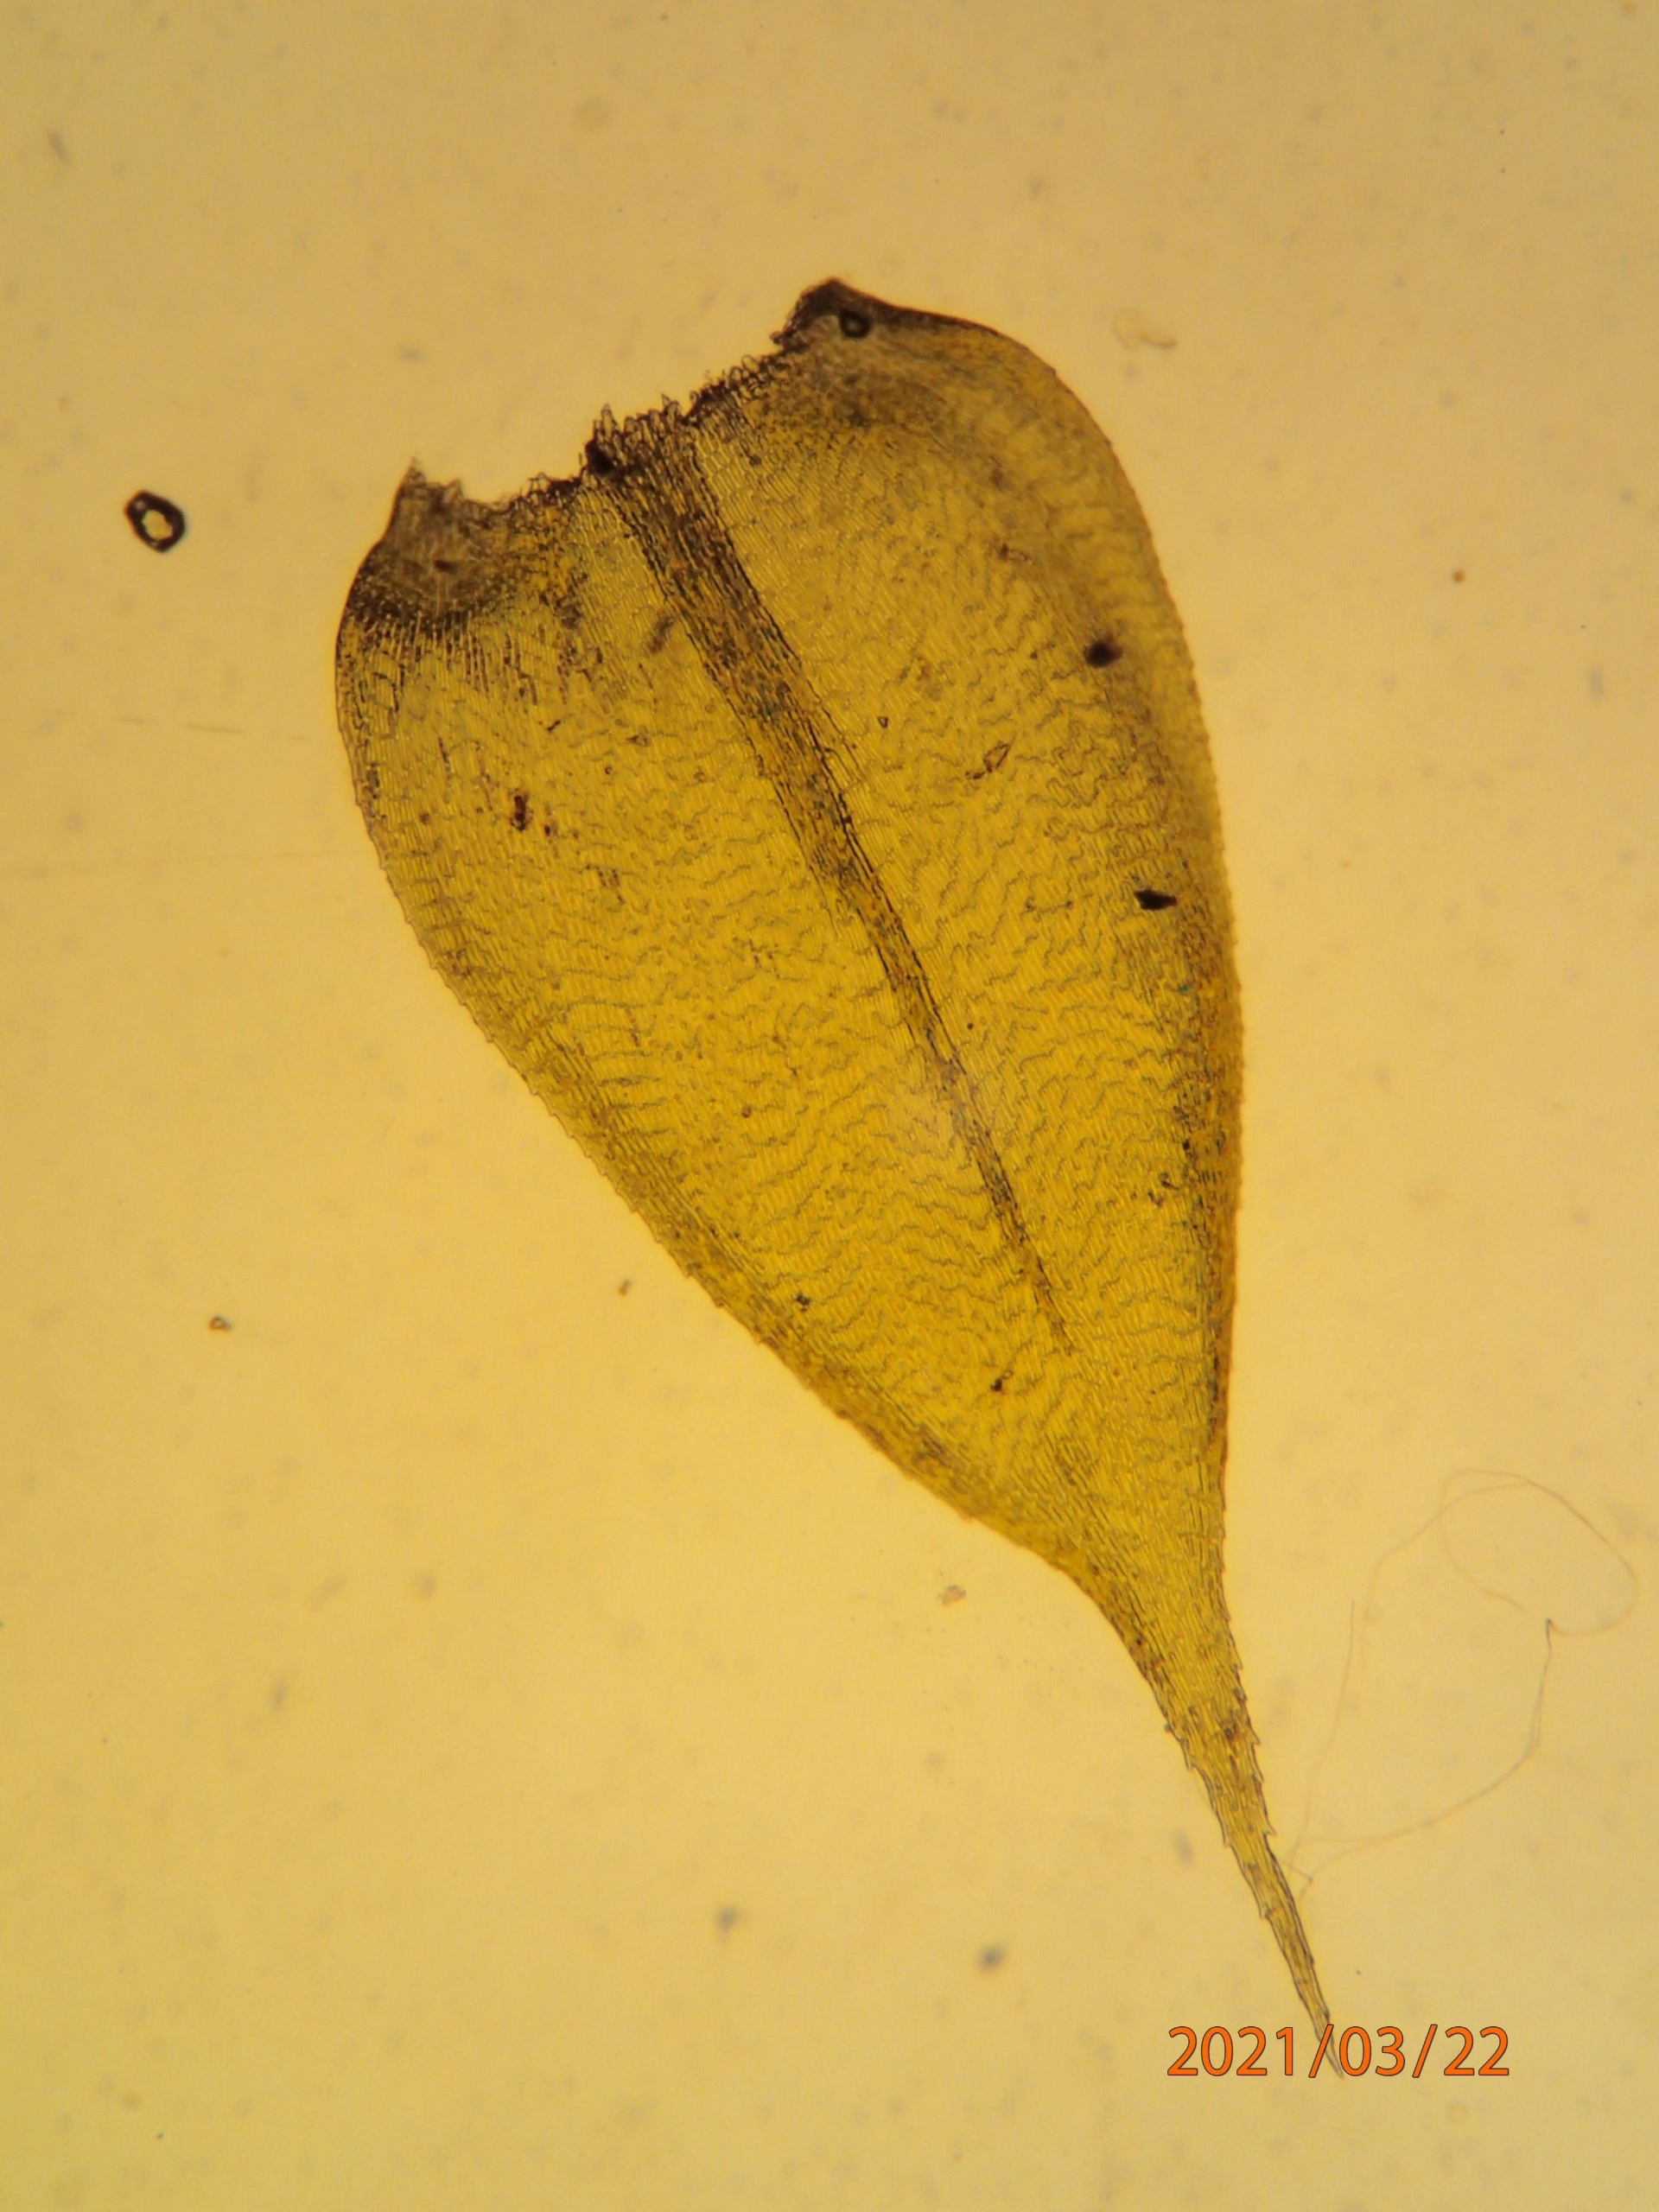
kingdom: Plantae
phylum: Bryophyta
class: Bryopsida
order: Hypnales
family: Lembophyllaceae
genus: Pseudisothecium
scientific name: Pseudisothecium myosuroides
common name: Slank stammemos
